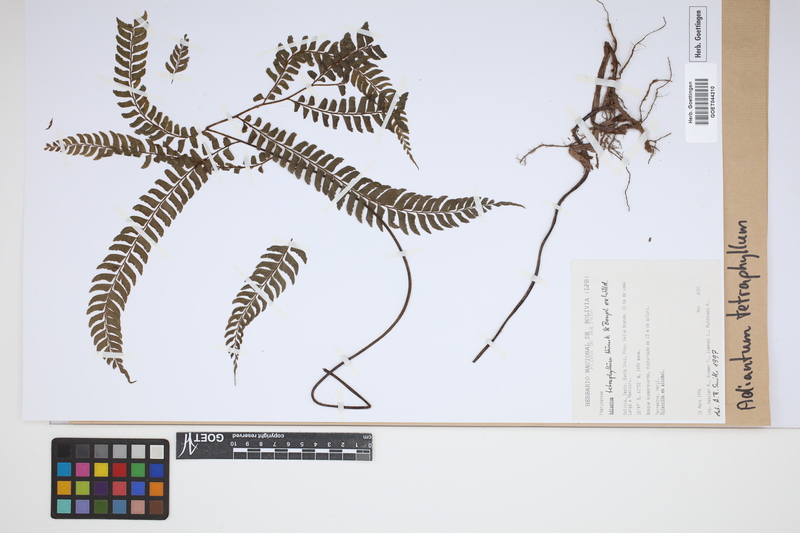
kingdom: Plantae
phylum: Tracheophyta
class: Polypodiopsida
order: Polypodiales
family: Pteridaceae
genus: Adiantum
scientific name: Adiantum tetraphyllum
